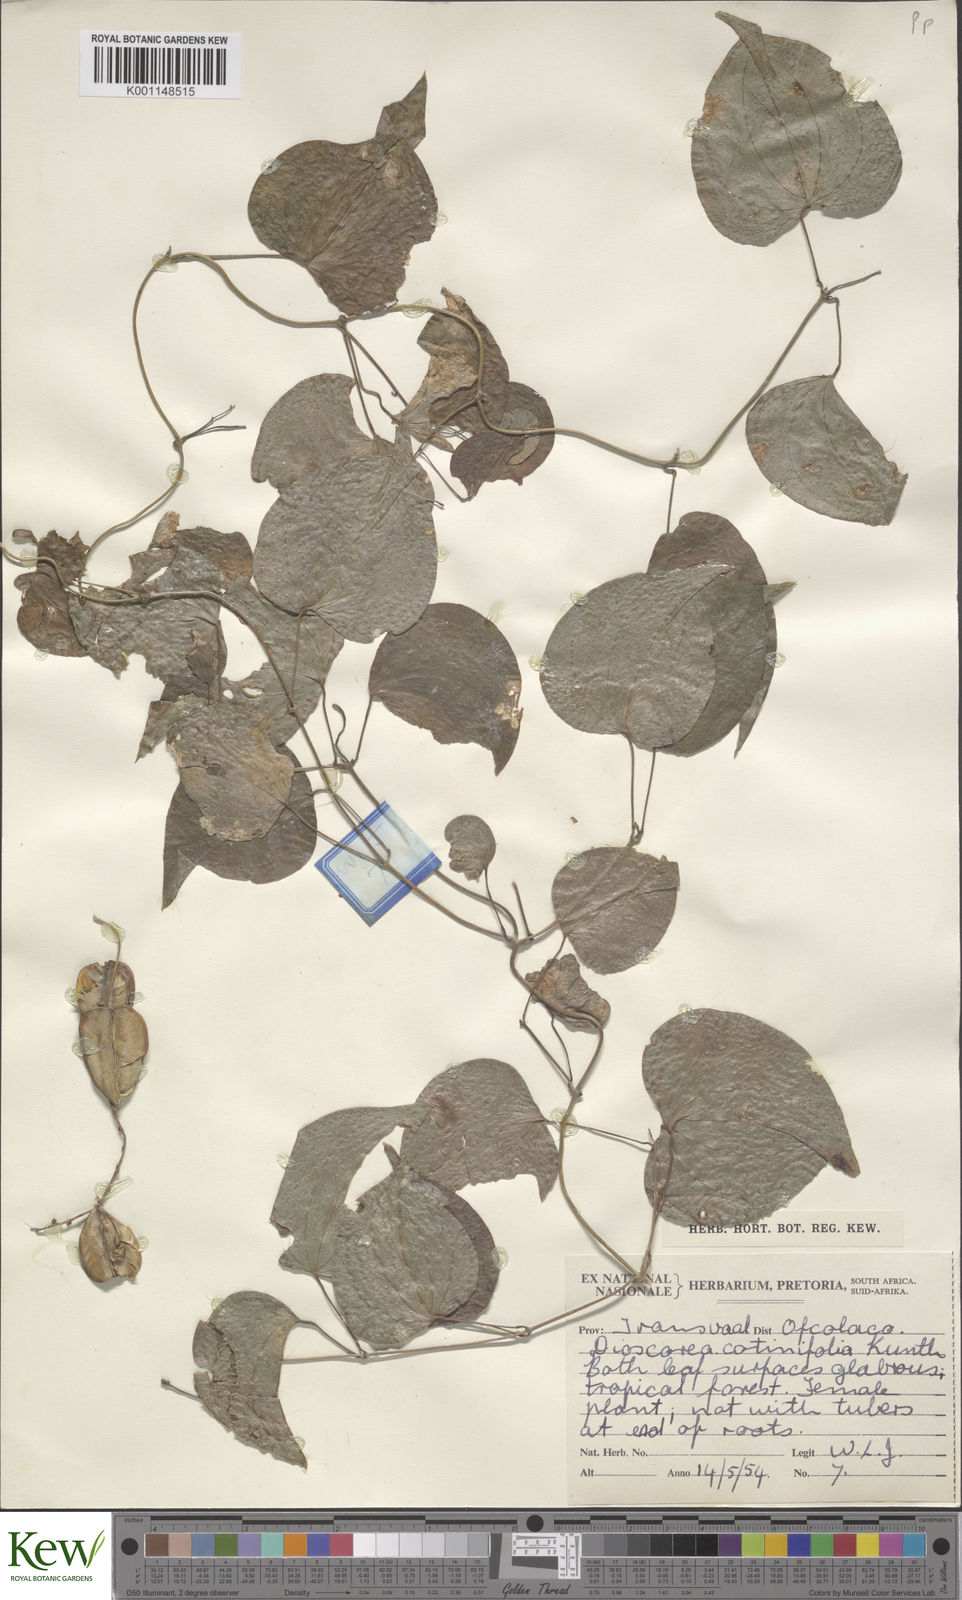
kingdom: Plantae
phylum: Tracheophyta
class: Liliopsida
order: Dioscoreales
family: Dioscoreaceae
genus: Dioscorea
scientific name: Dioscorea
